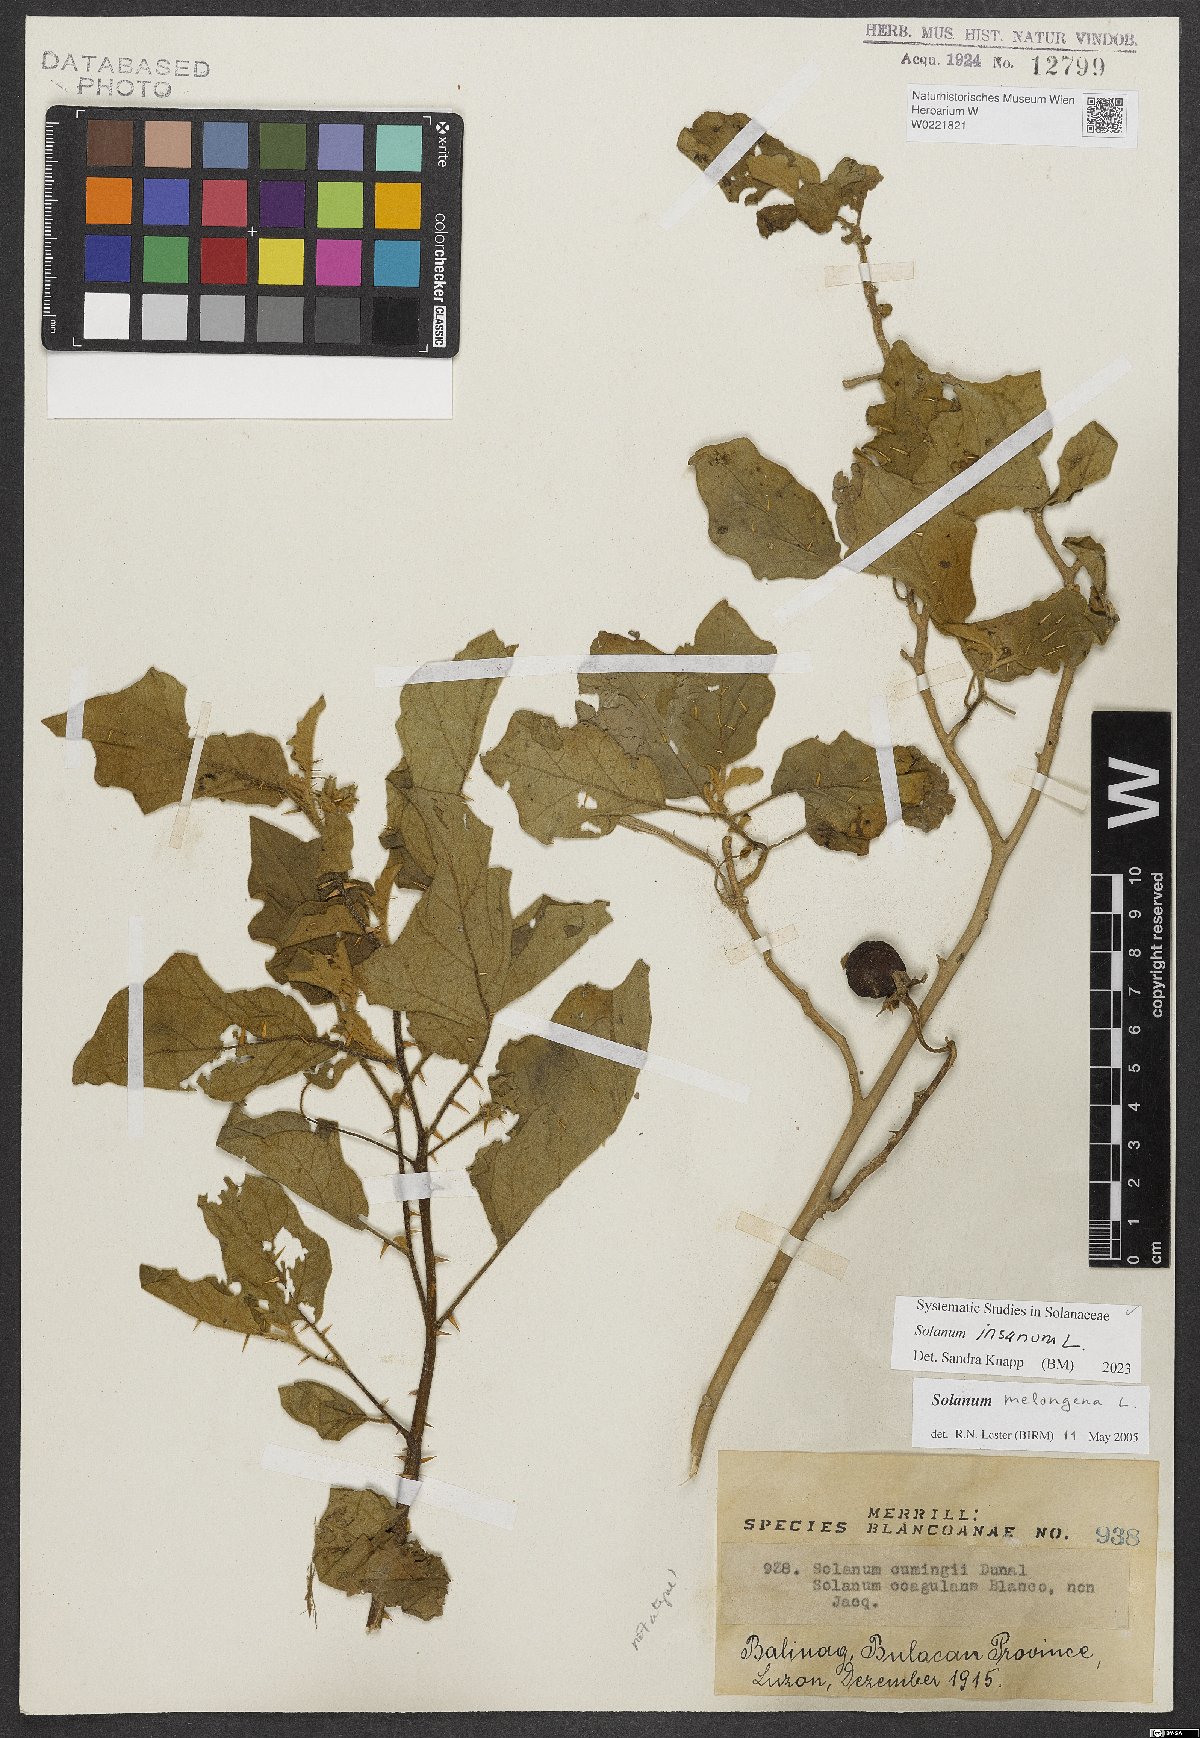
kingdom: Plantae
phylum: Tracheophyta
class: Magnoliopsida
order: Solanales
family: Solanaceae
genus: Solanum
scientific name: Solanum insanum
